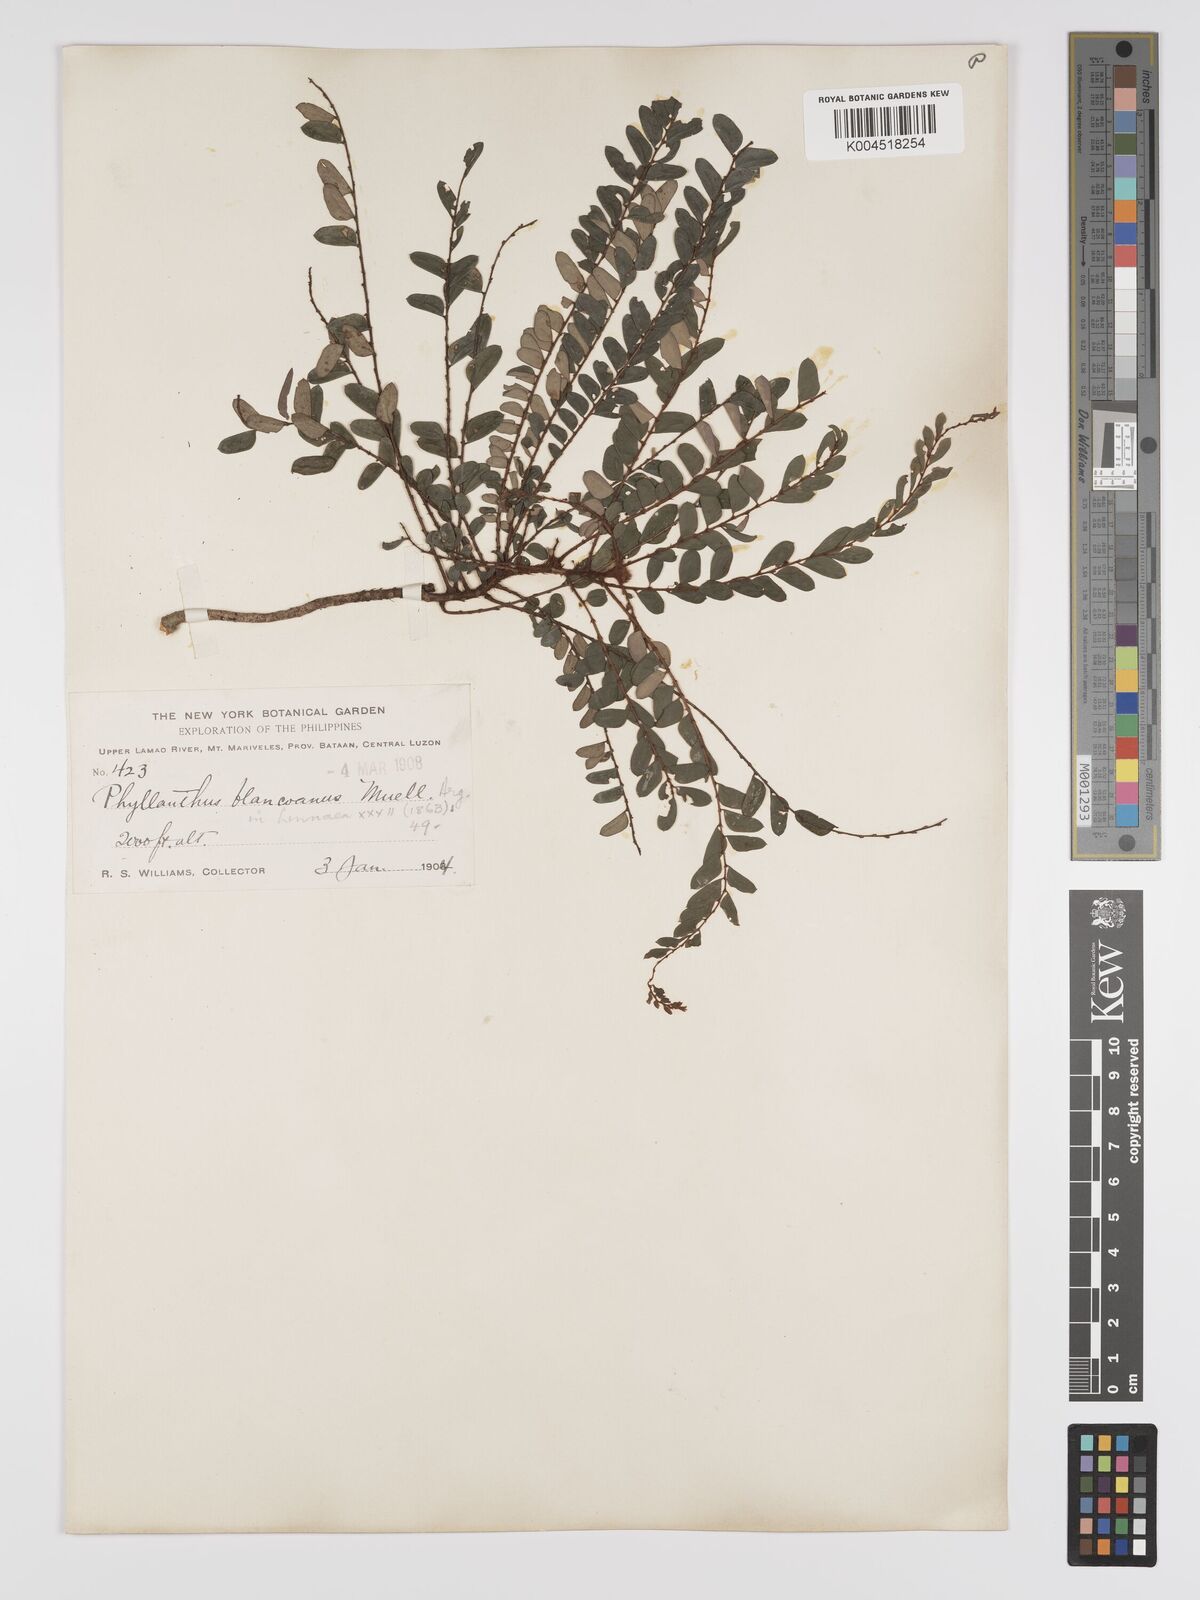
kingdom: Plantae
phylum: Tracheophyta
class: Magnoliopsida
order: Malpighiales
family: Phyllanthaceae
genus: Phyllanthus
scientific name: Phyllanthus blancoanus
